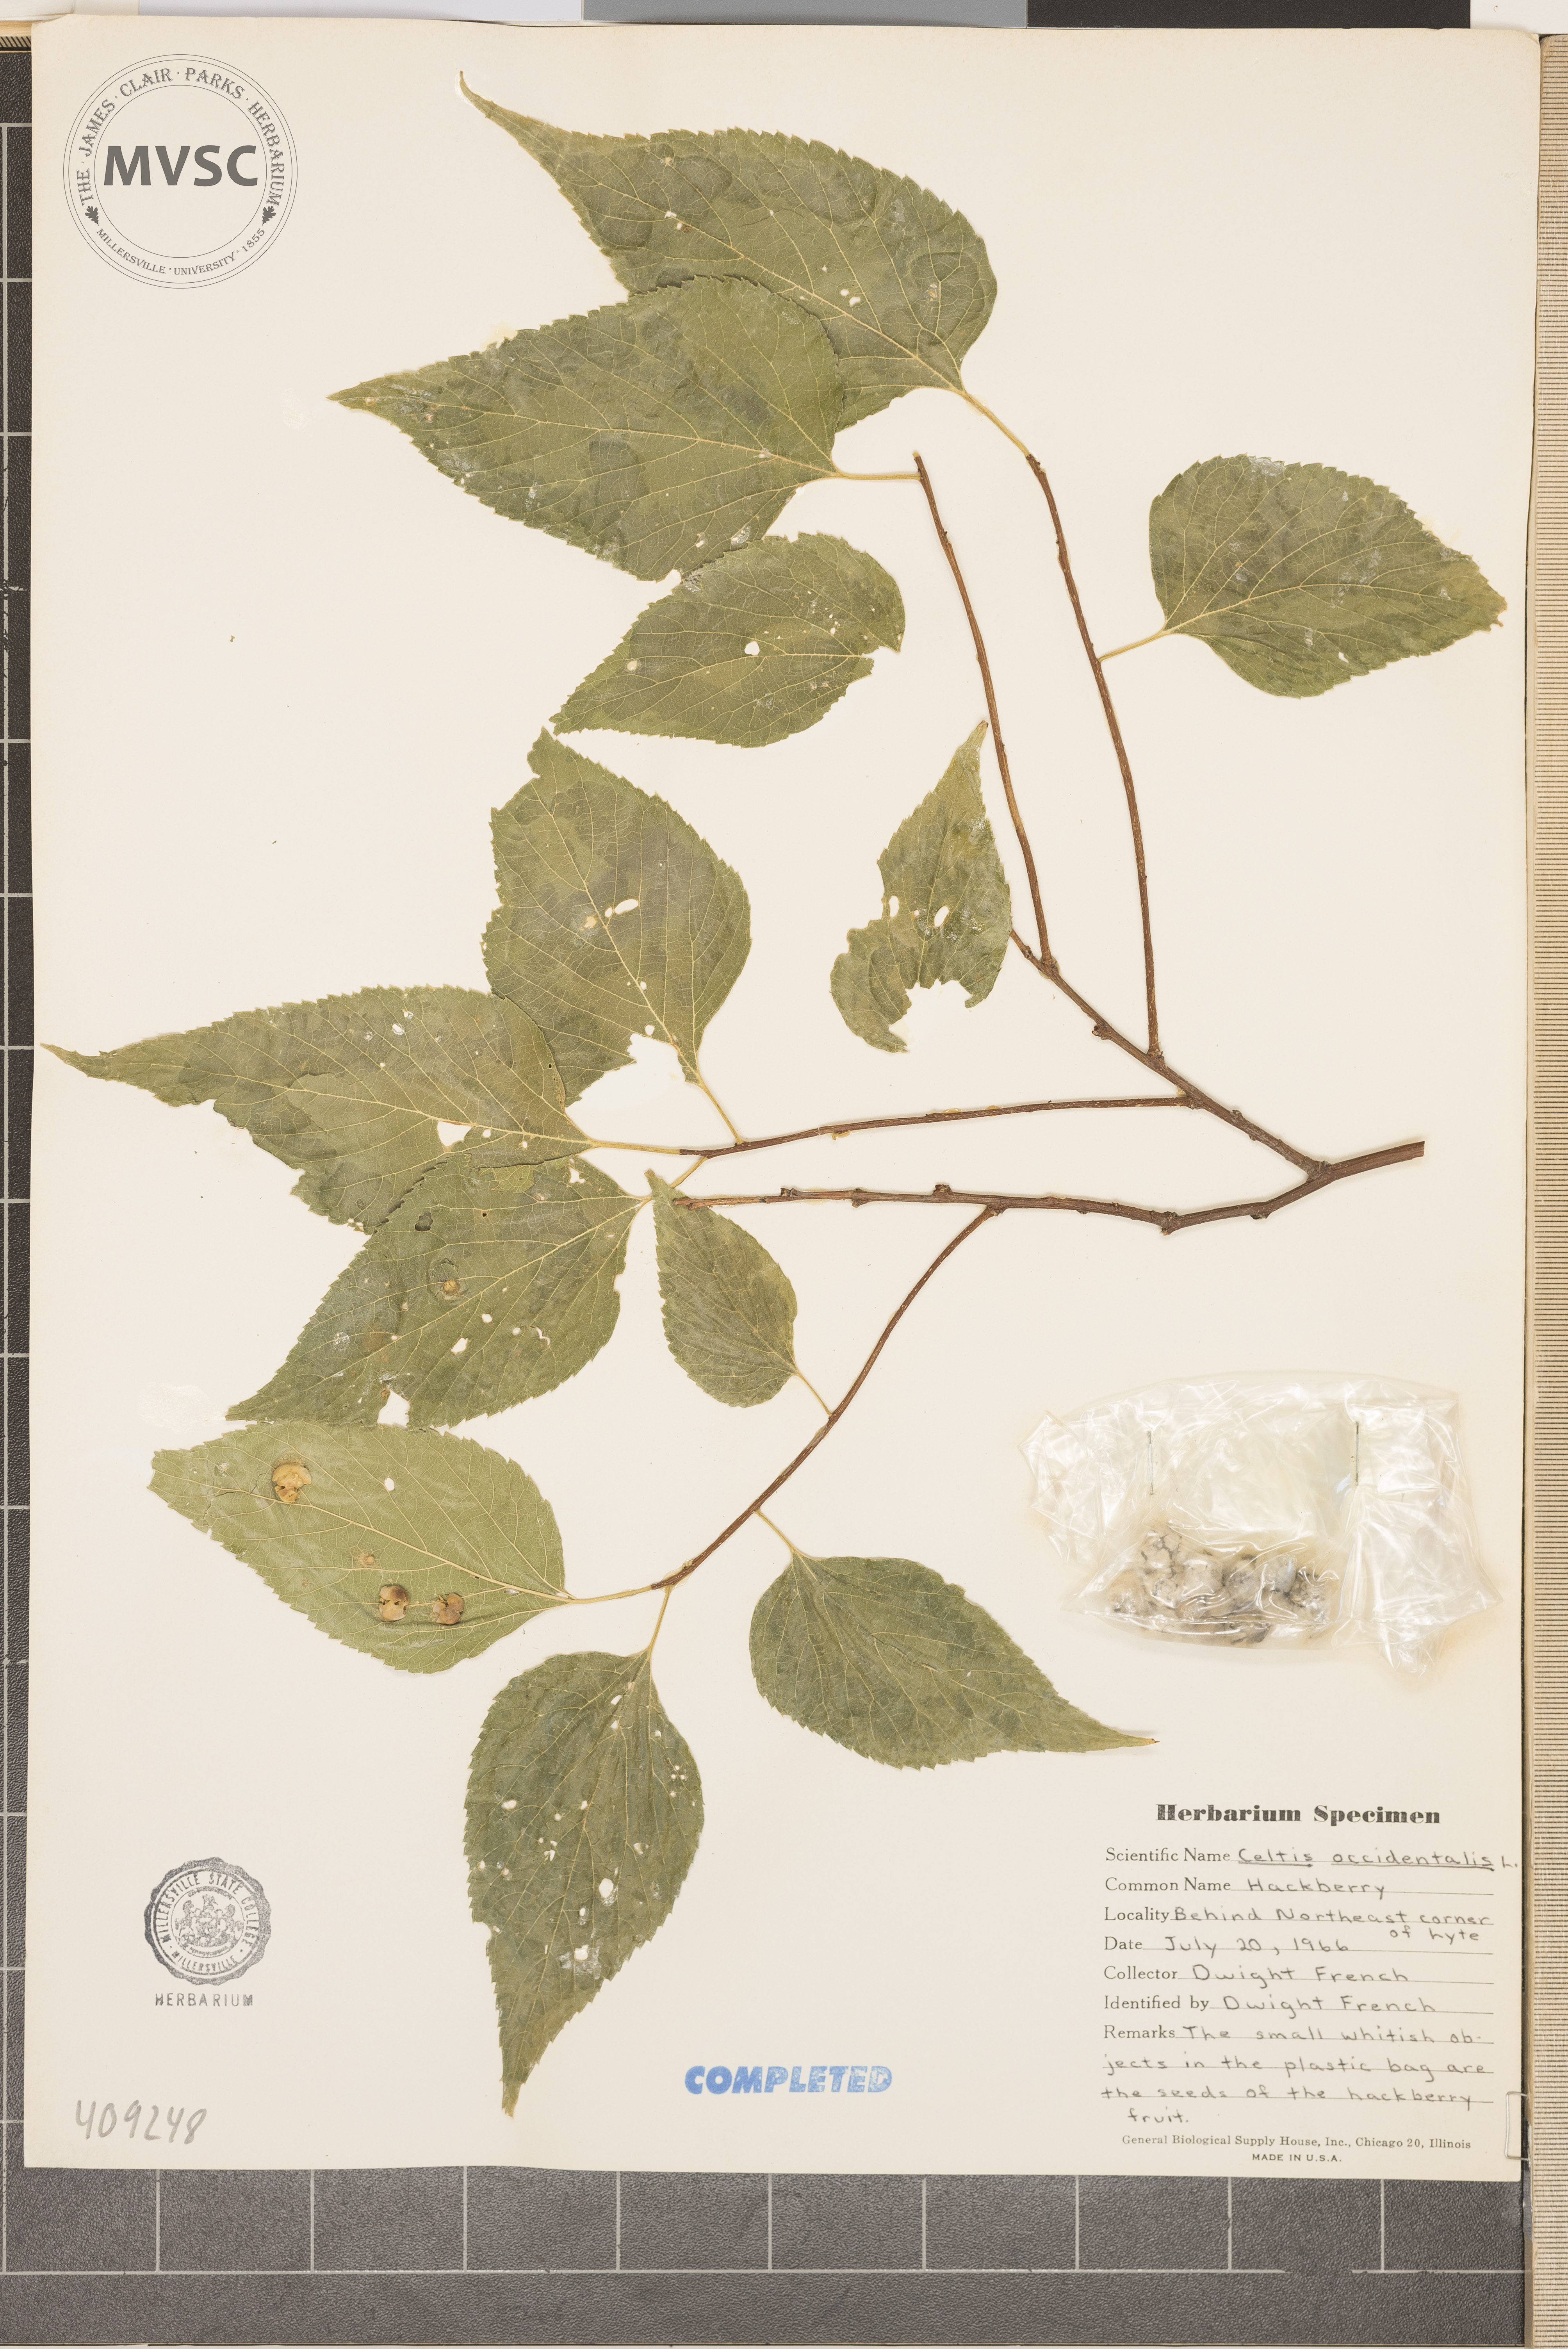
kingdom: Plantae
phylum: Tracheophyta
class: Magnoliopsida
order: Rosales
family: Cannabaceae
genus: Celtis
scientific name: Celtis occidentalis
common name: hackberry
